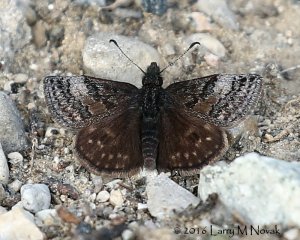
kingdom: Animalia
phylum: Arthropoda
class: Insecta
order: Lepidoptera
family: Hesperiidae
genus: Erynnis
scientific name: Erynnis icelus
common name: Dreamy Duskywing
